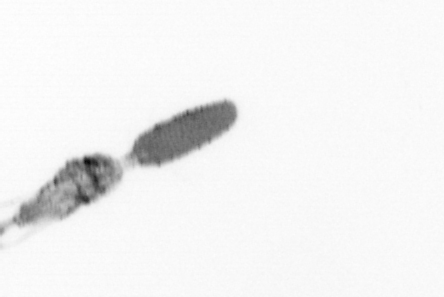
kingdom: Animalia
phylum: Arthropoda
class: Copepoda
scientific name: Copepoda
